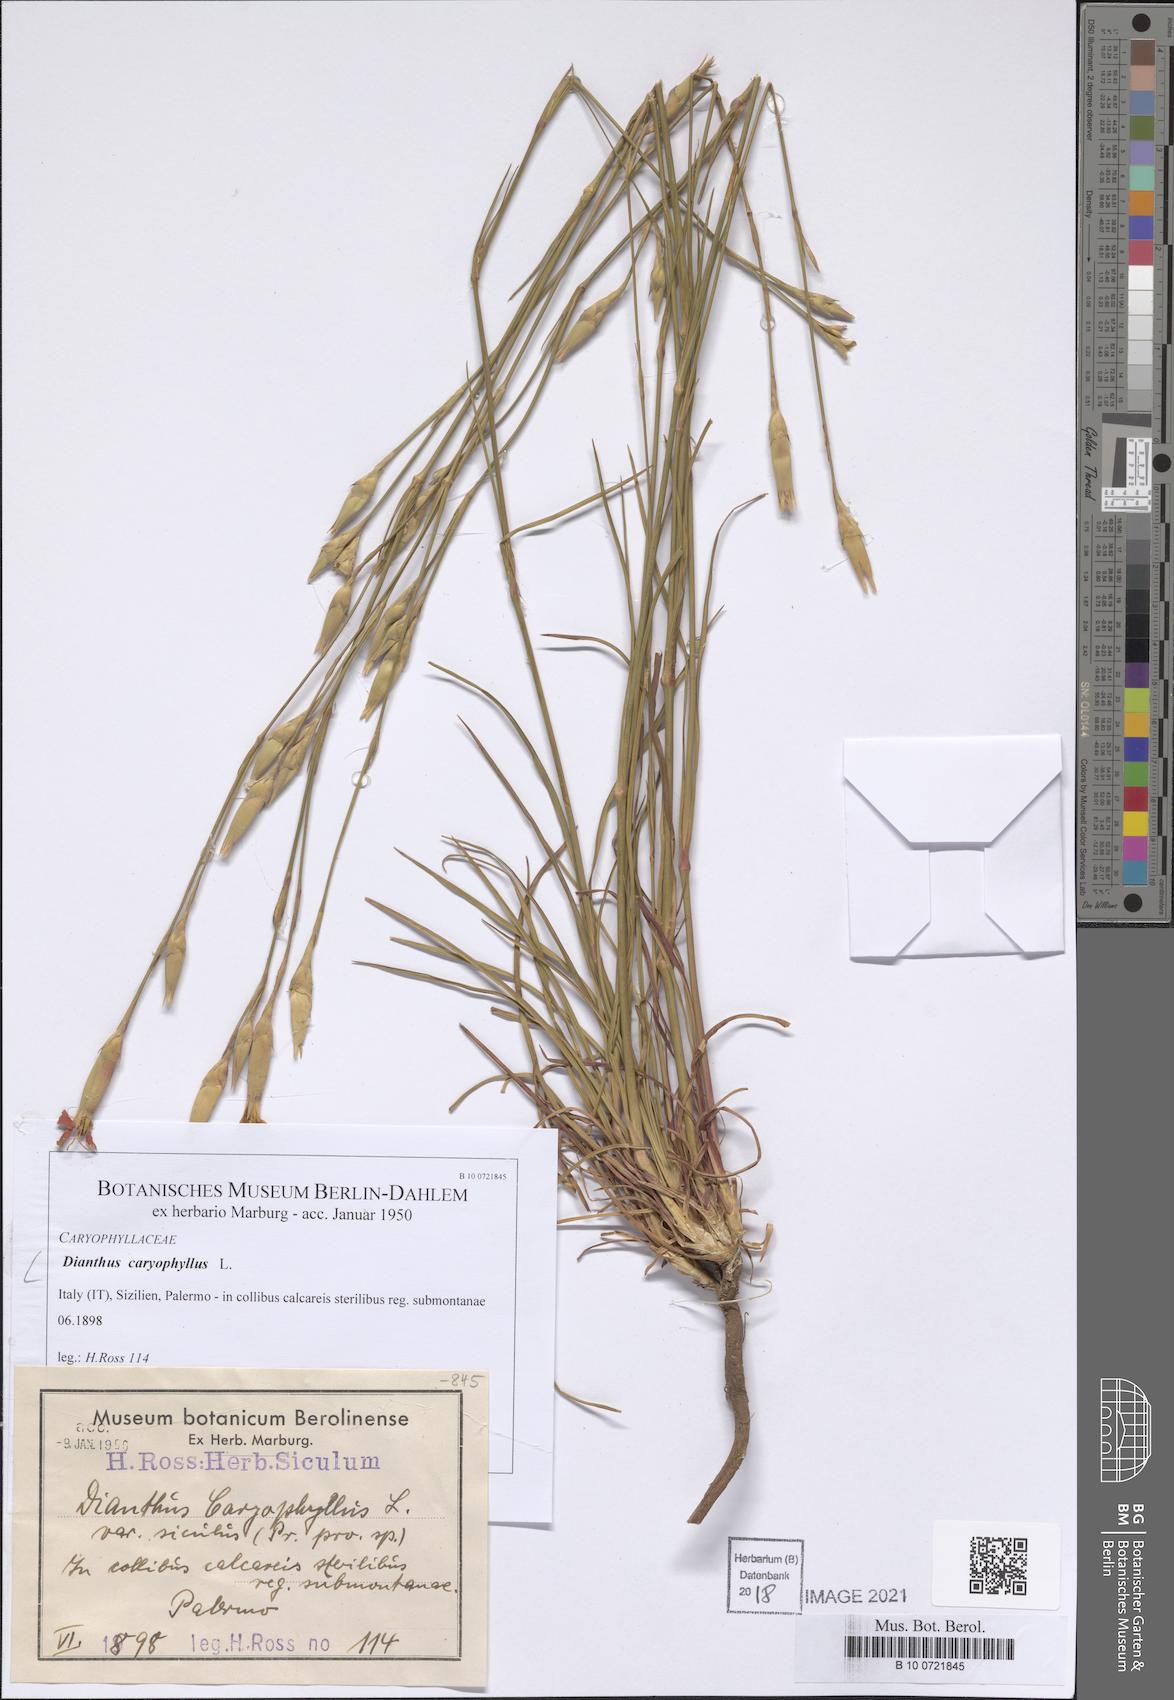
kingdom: Plantae
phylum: Tracheophyta
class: Magnoliopsida
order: Caryophyllales
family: Caryophyllaceae
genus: Dianthus
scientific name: Dianthus caryophyllus
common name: Clove pink
